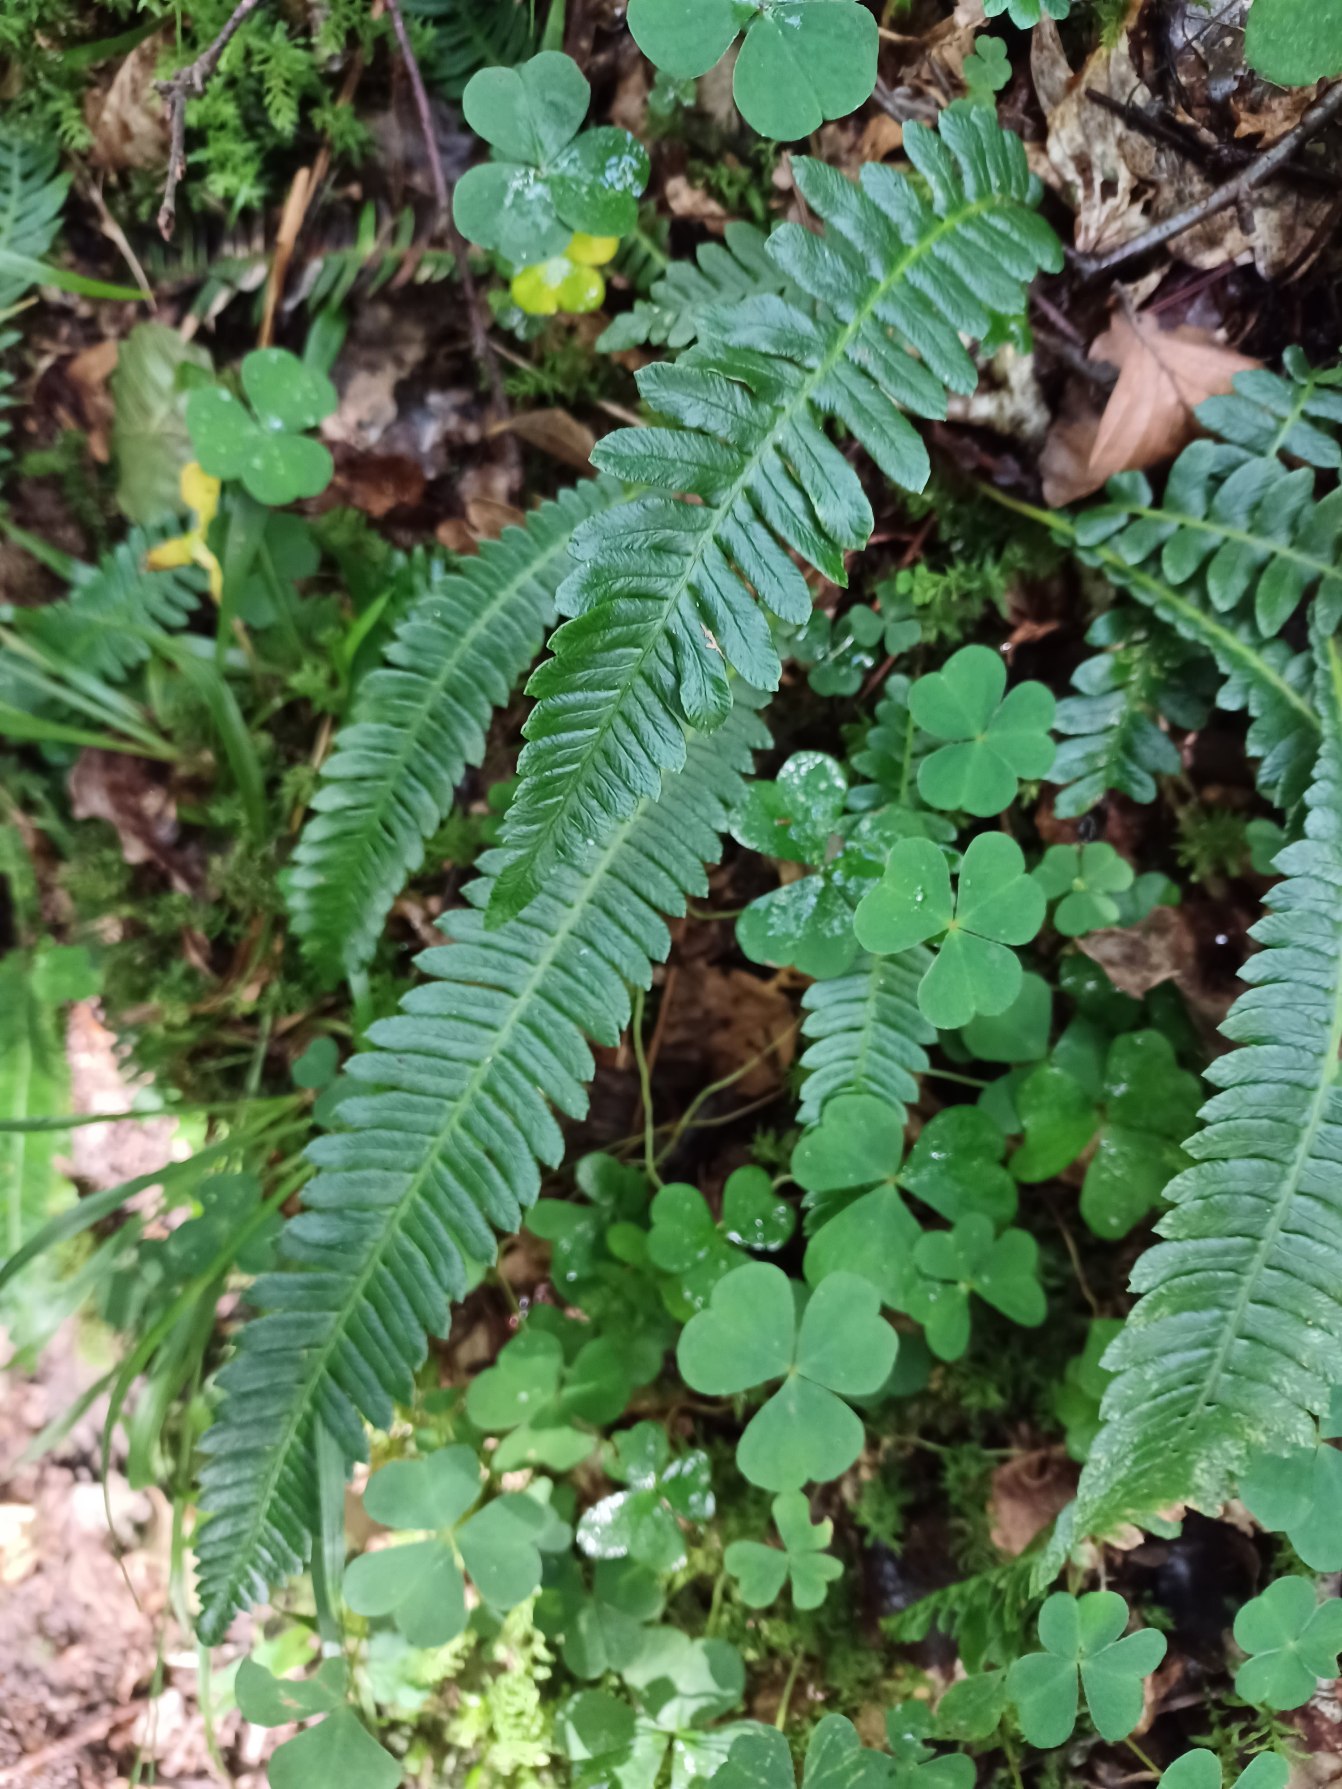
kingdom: Plantae
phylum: Tracheophyta
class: Polypodiopsida
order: Polypodiales
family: Blechnaceae
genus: Struthiopteris
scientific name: Struthiopteris spicant
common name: Kambregne
